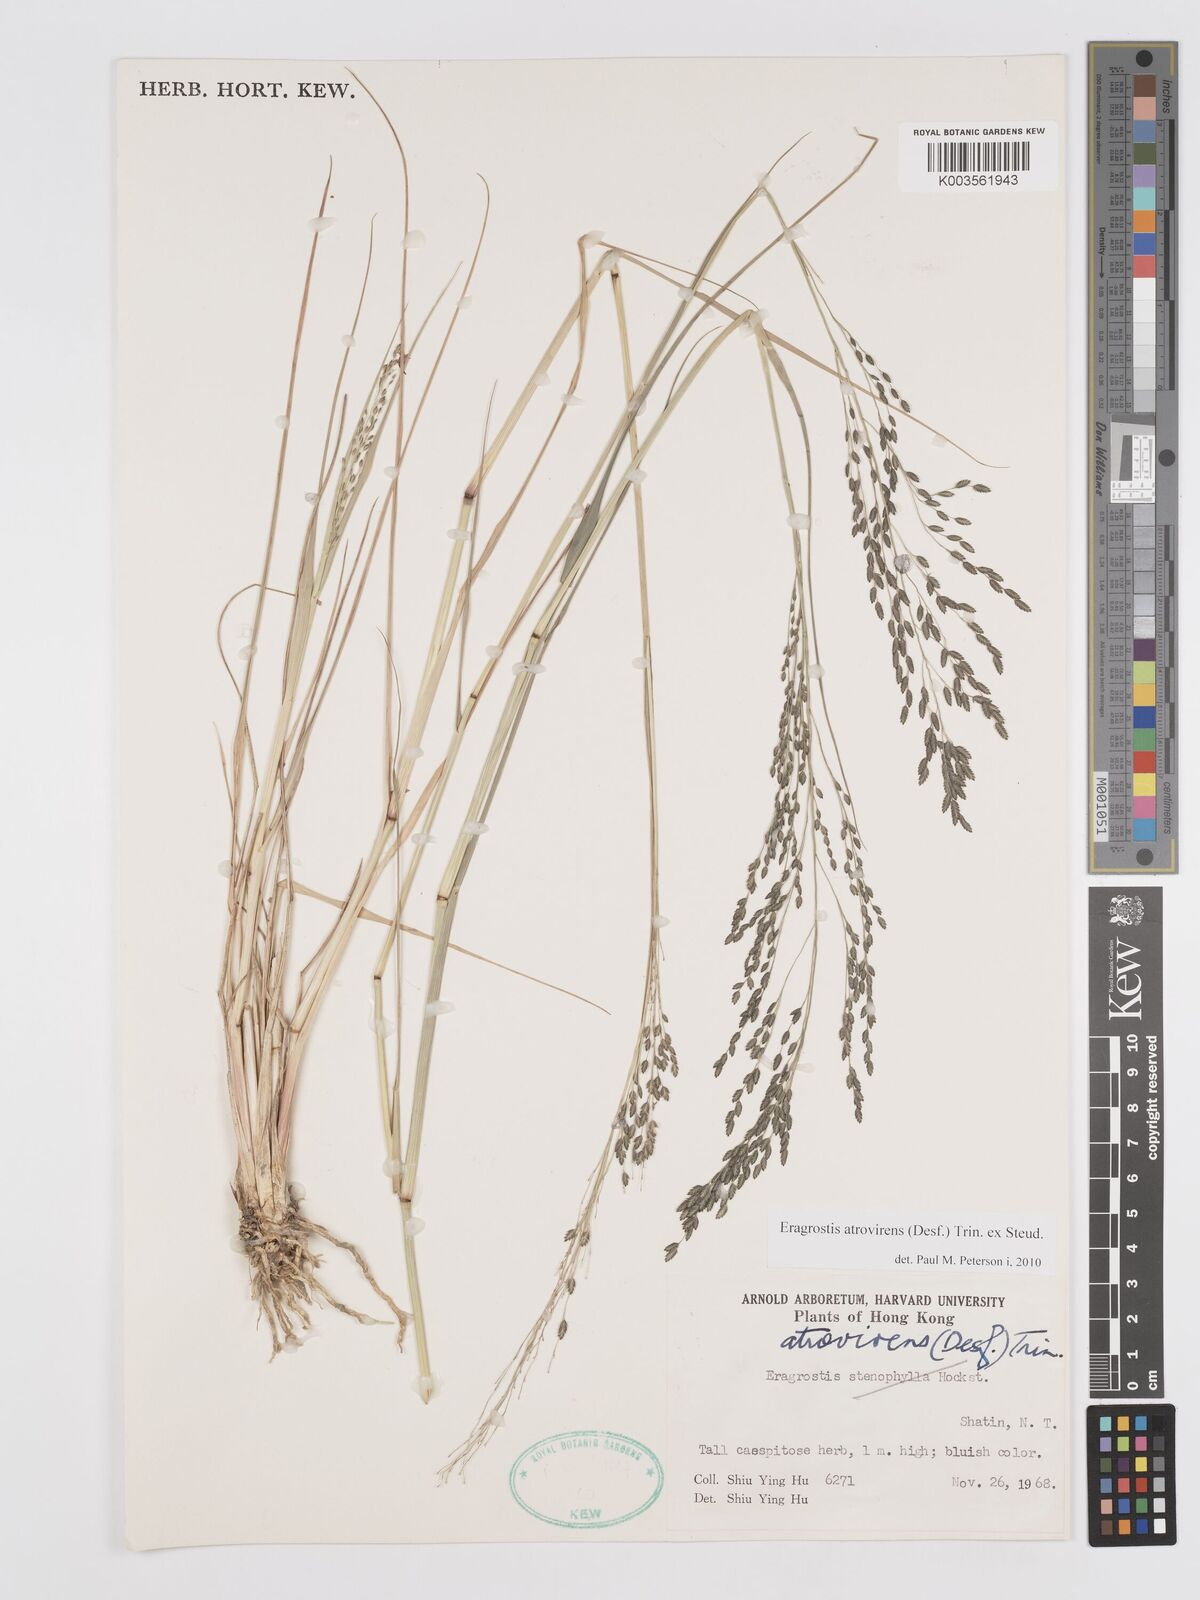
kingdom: Plantae
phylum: Tracheophyta
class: Liliopsida
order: Poales
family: Poaceae
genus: Eragrostis
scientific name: Eragrostis atrovirens
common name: Thalia lovegrass
